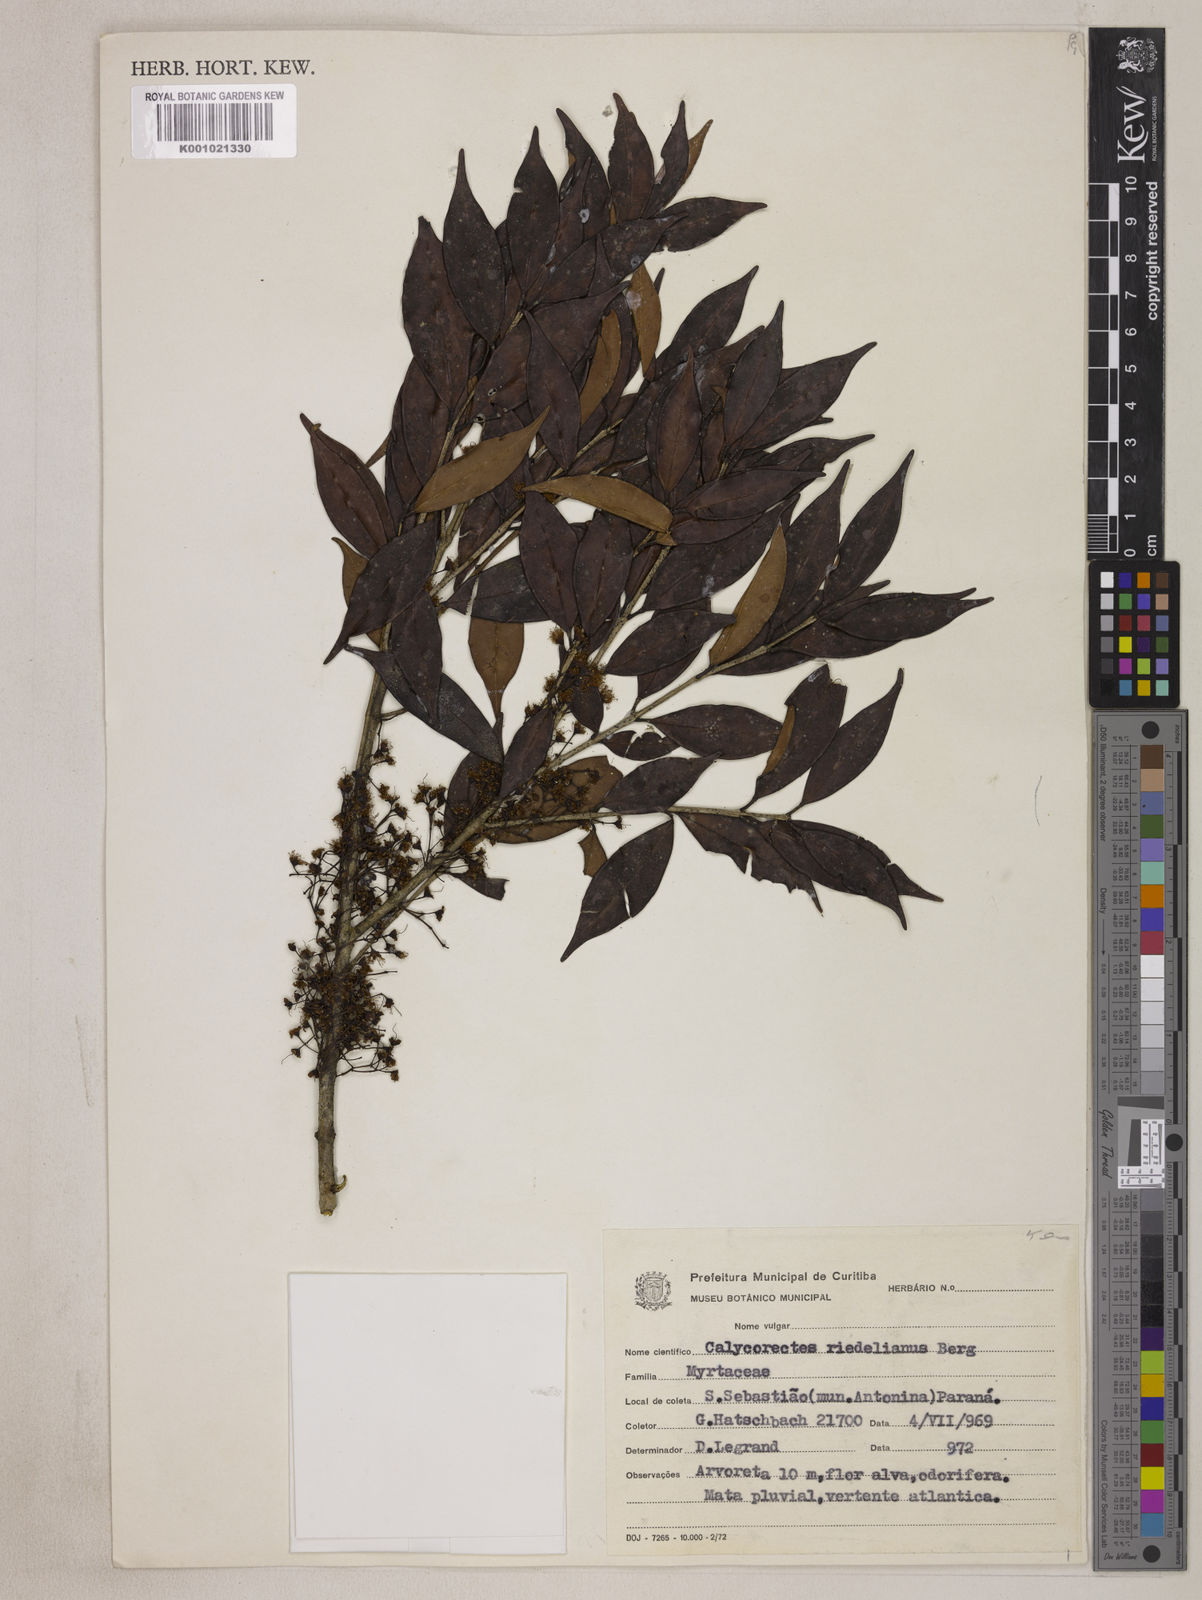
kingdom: Plantae
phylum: Tracheophyta
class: Magnoliopsida
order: Myrtales
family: Myrtaceae
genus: Plinia
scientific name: Plinia
